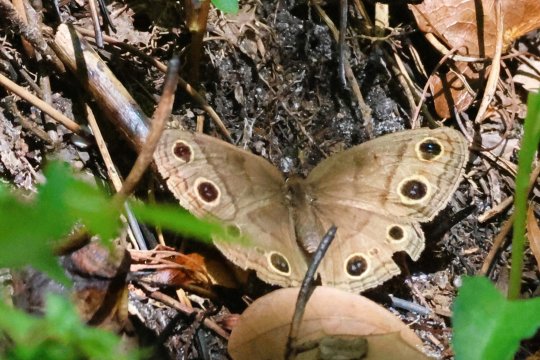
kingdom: Animalia
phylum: Arthropoda
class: Insecta
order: Lepidoptera
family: Nymphalidae
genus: Euptychia
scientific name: Euptychia cymela
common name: Little Wood Satyr
